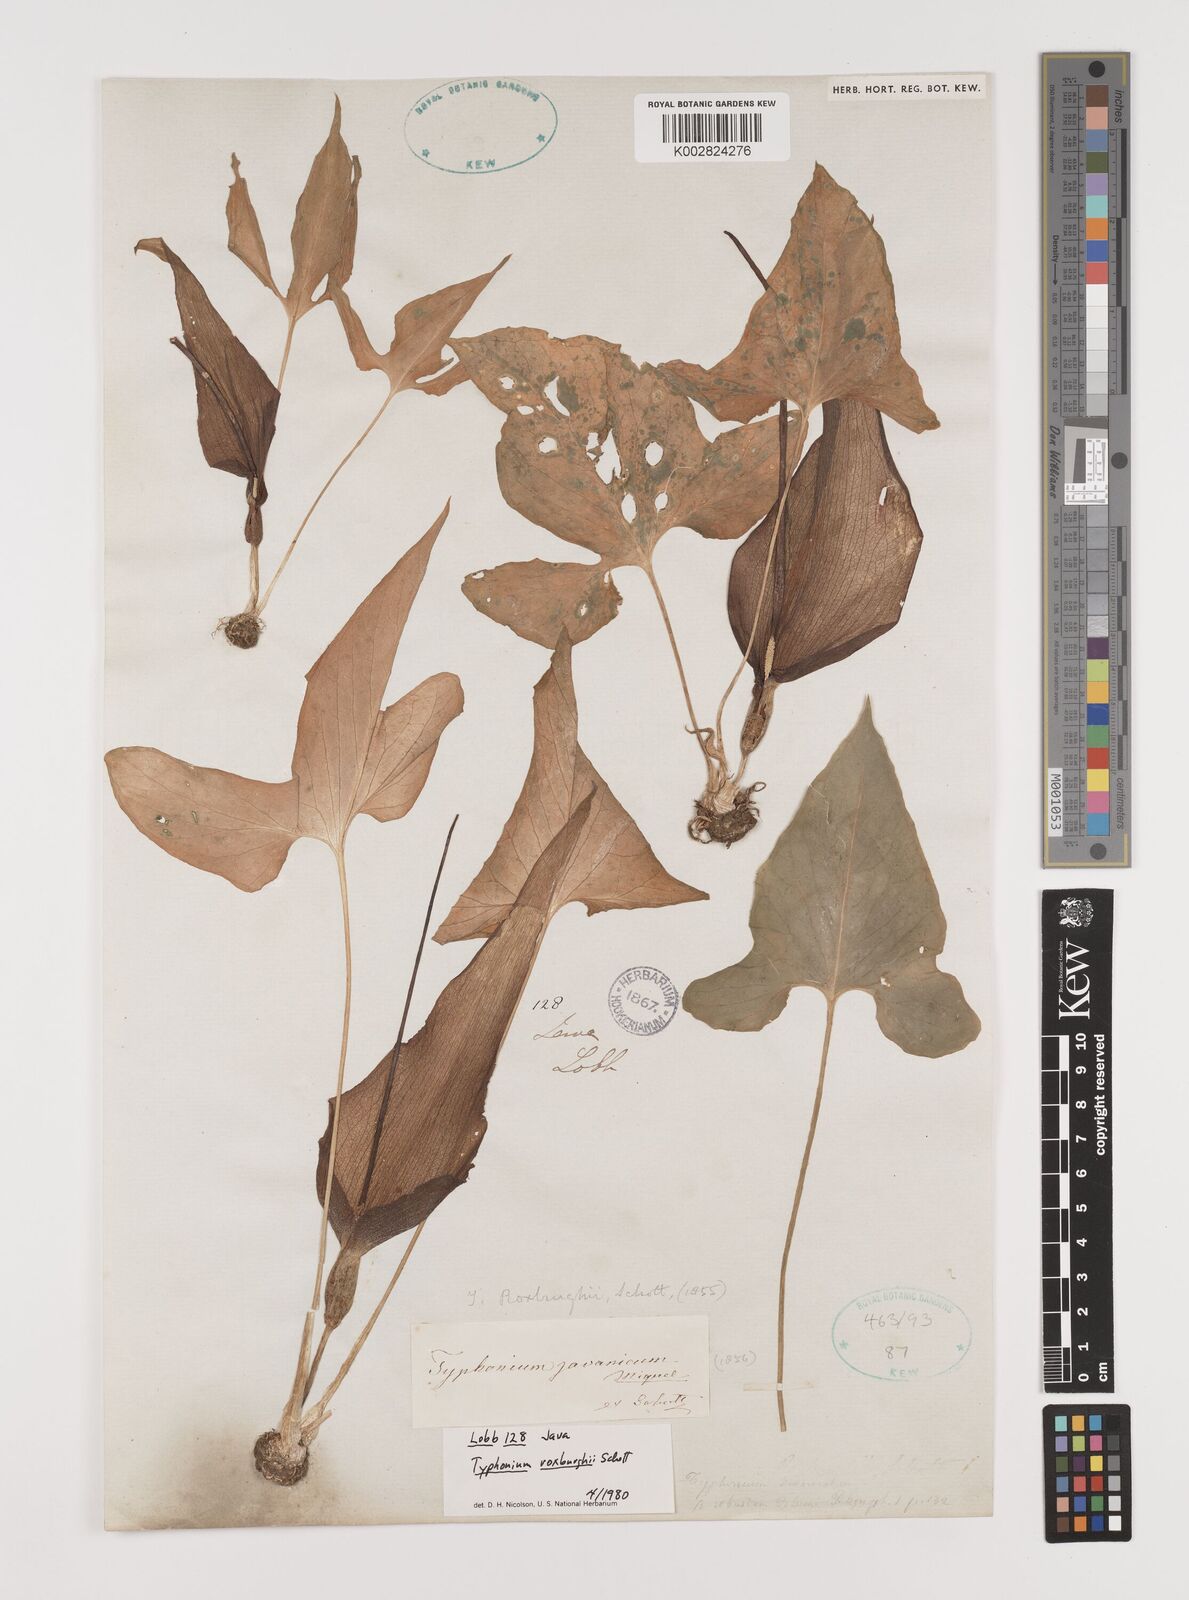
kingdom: Plantae
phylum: Tracheophyta
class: Liliopsida
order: Alismatales
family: Araceae
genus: Typhonium
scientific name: Typhonium roxburghii
